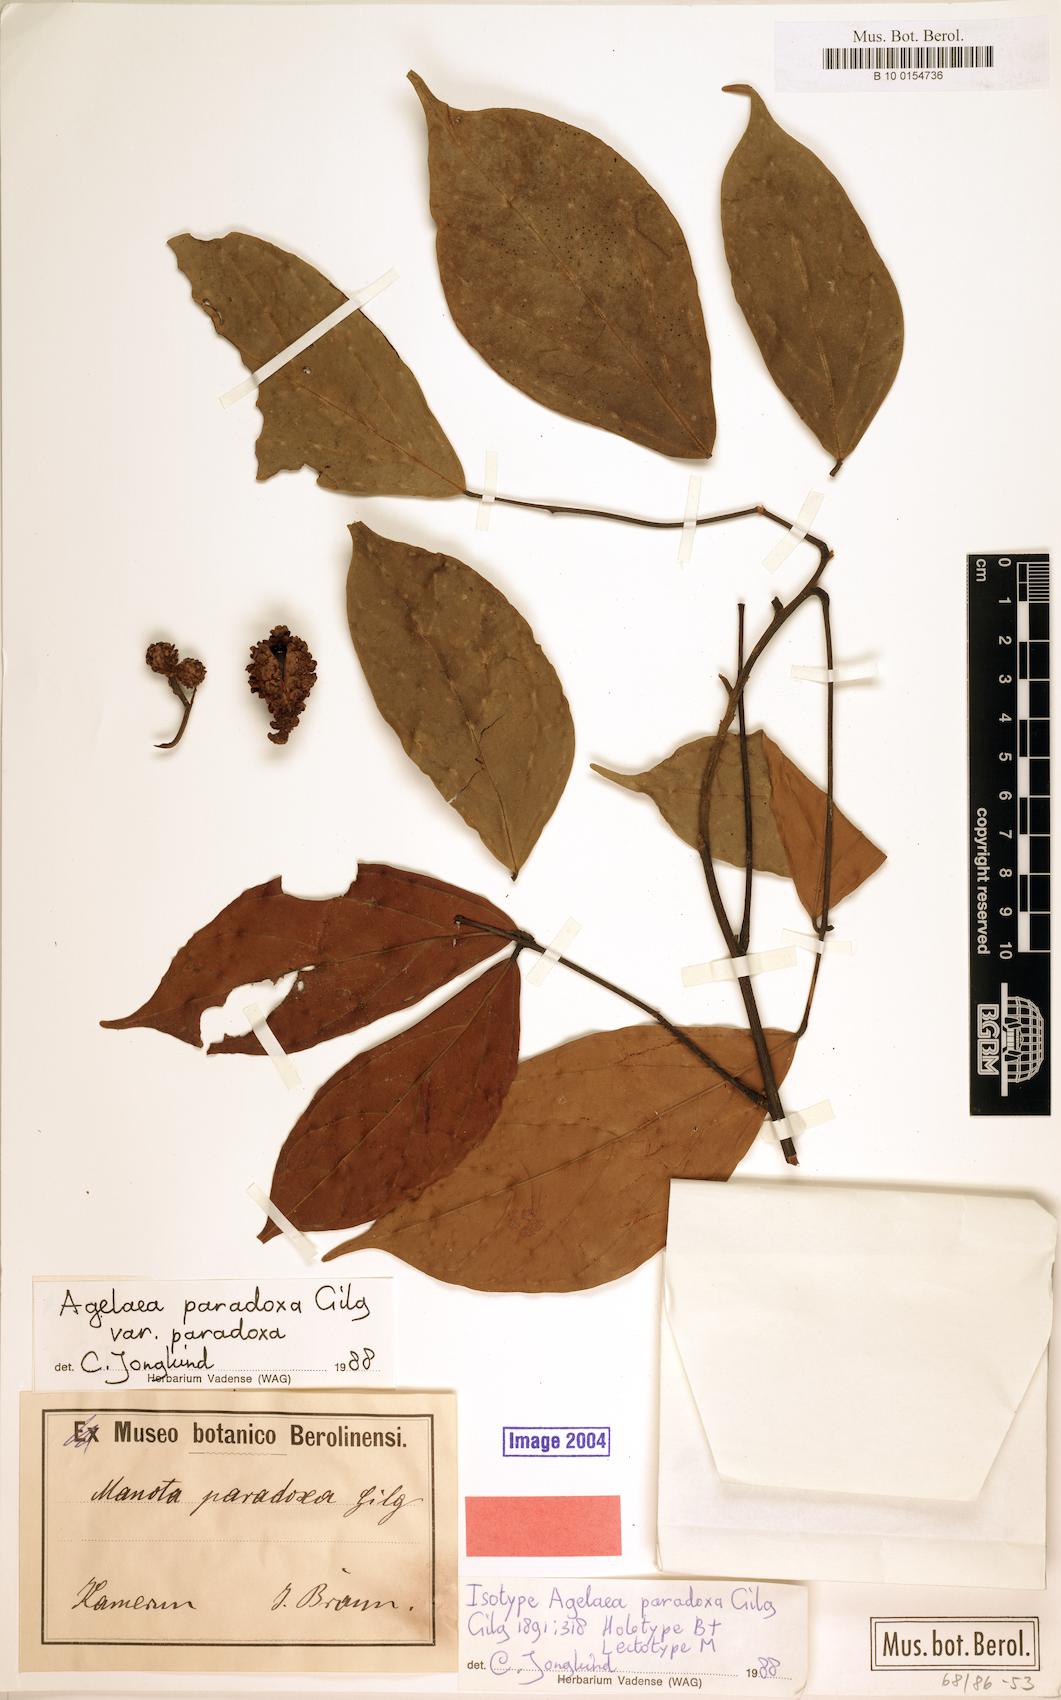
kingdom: Plantae
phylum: Tracheophyta
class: Magnoliopsida
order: Oxalidales
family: Connaraceae
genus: Castanola
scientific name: Castanola paradoxa
